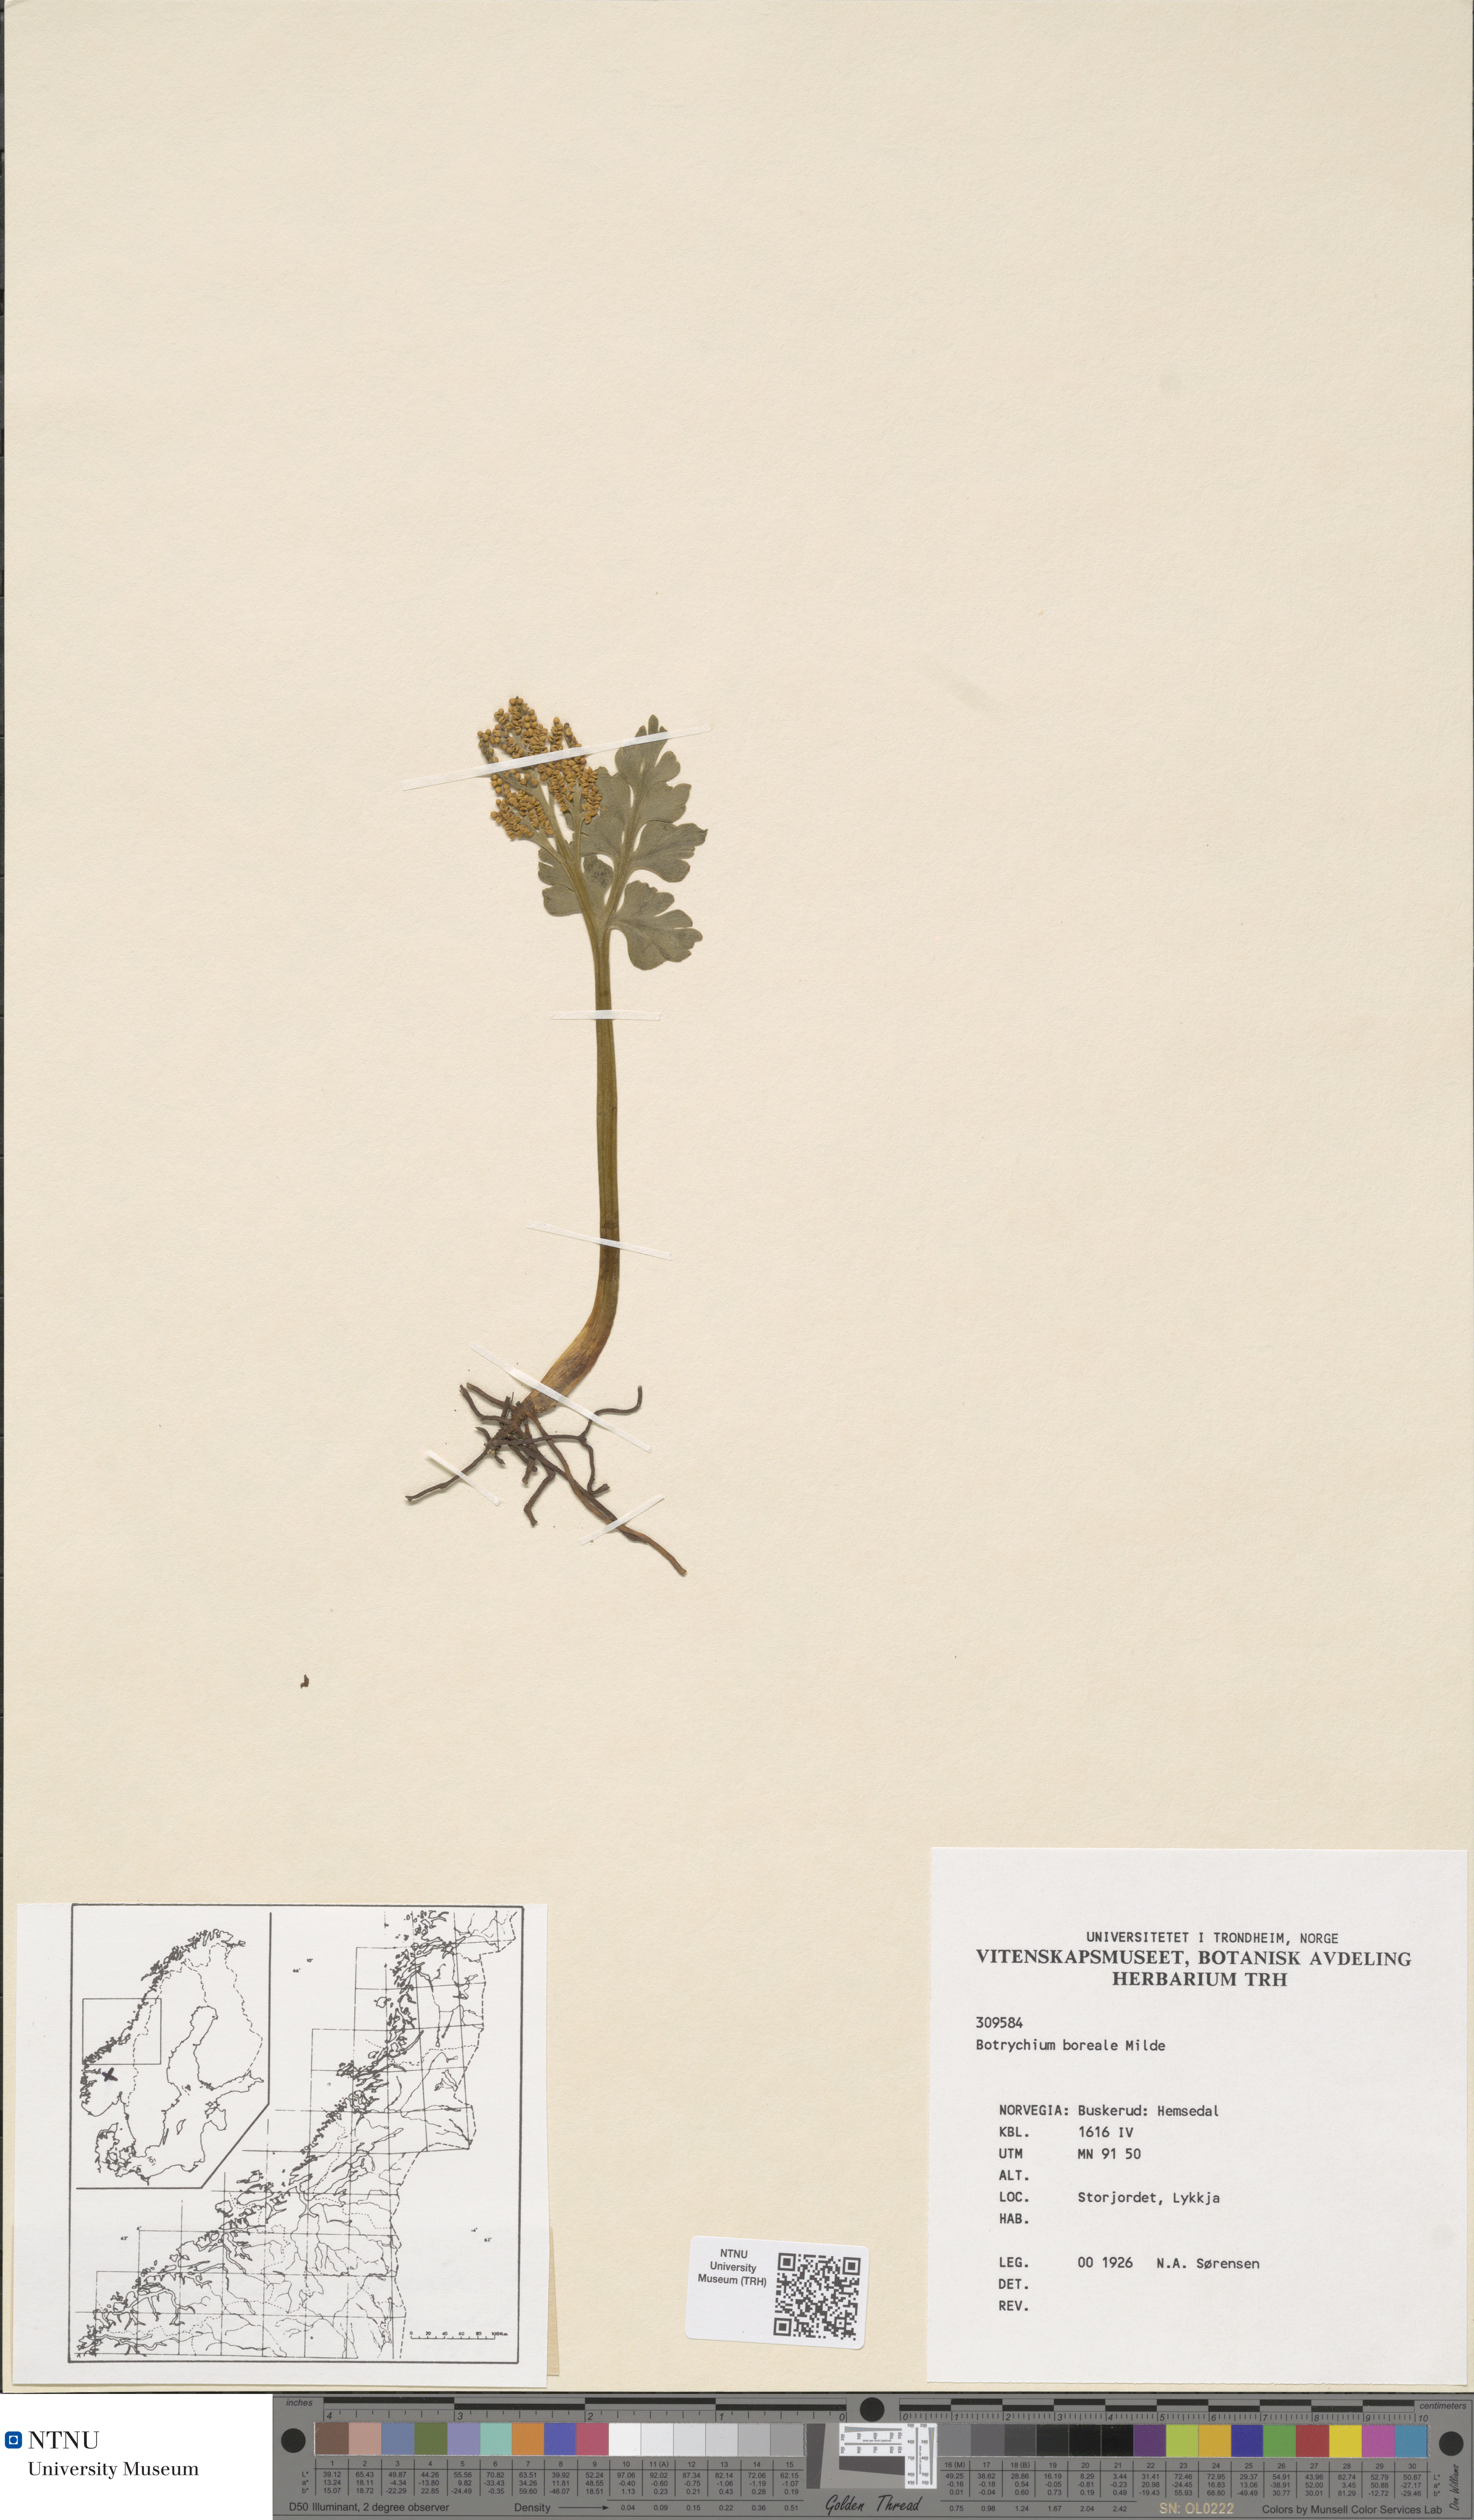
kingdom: Plantae
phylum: Tracheophyta
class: Polypodiopsida
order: Ophioglossales
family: Ophioglossaceae
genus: Botrychium
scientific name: Botrychium boreale
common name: Boreal moonwort
